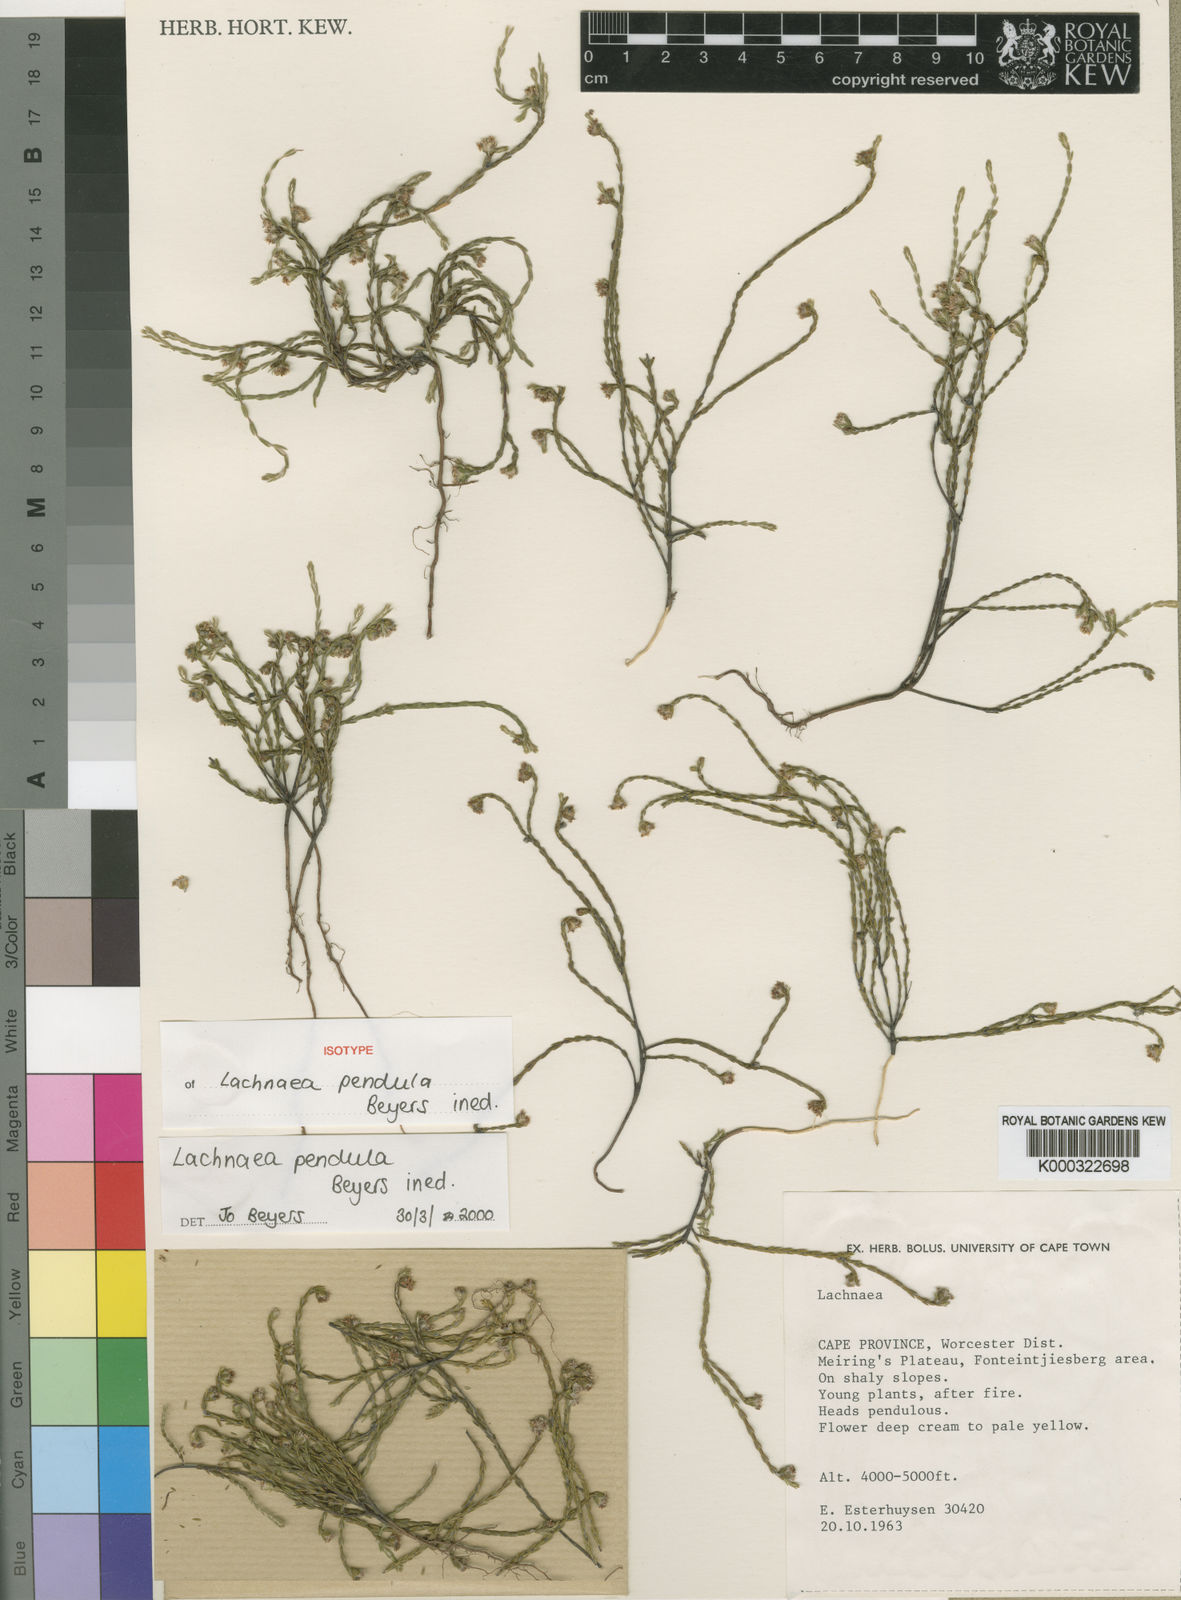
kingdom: Plantae
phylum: Tracheophyta
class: Magnoliopsida
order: Malvales
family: Thymelaeaceae
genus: Lachnaea
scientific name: Lachnaea pendula
